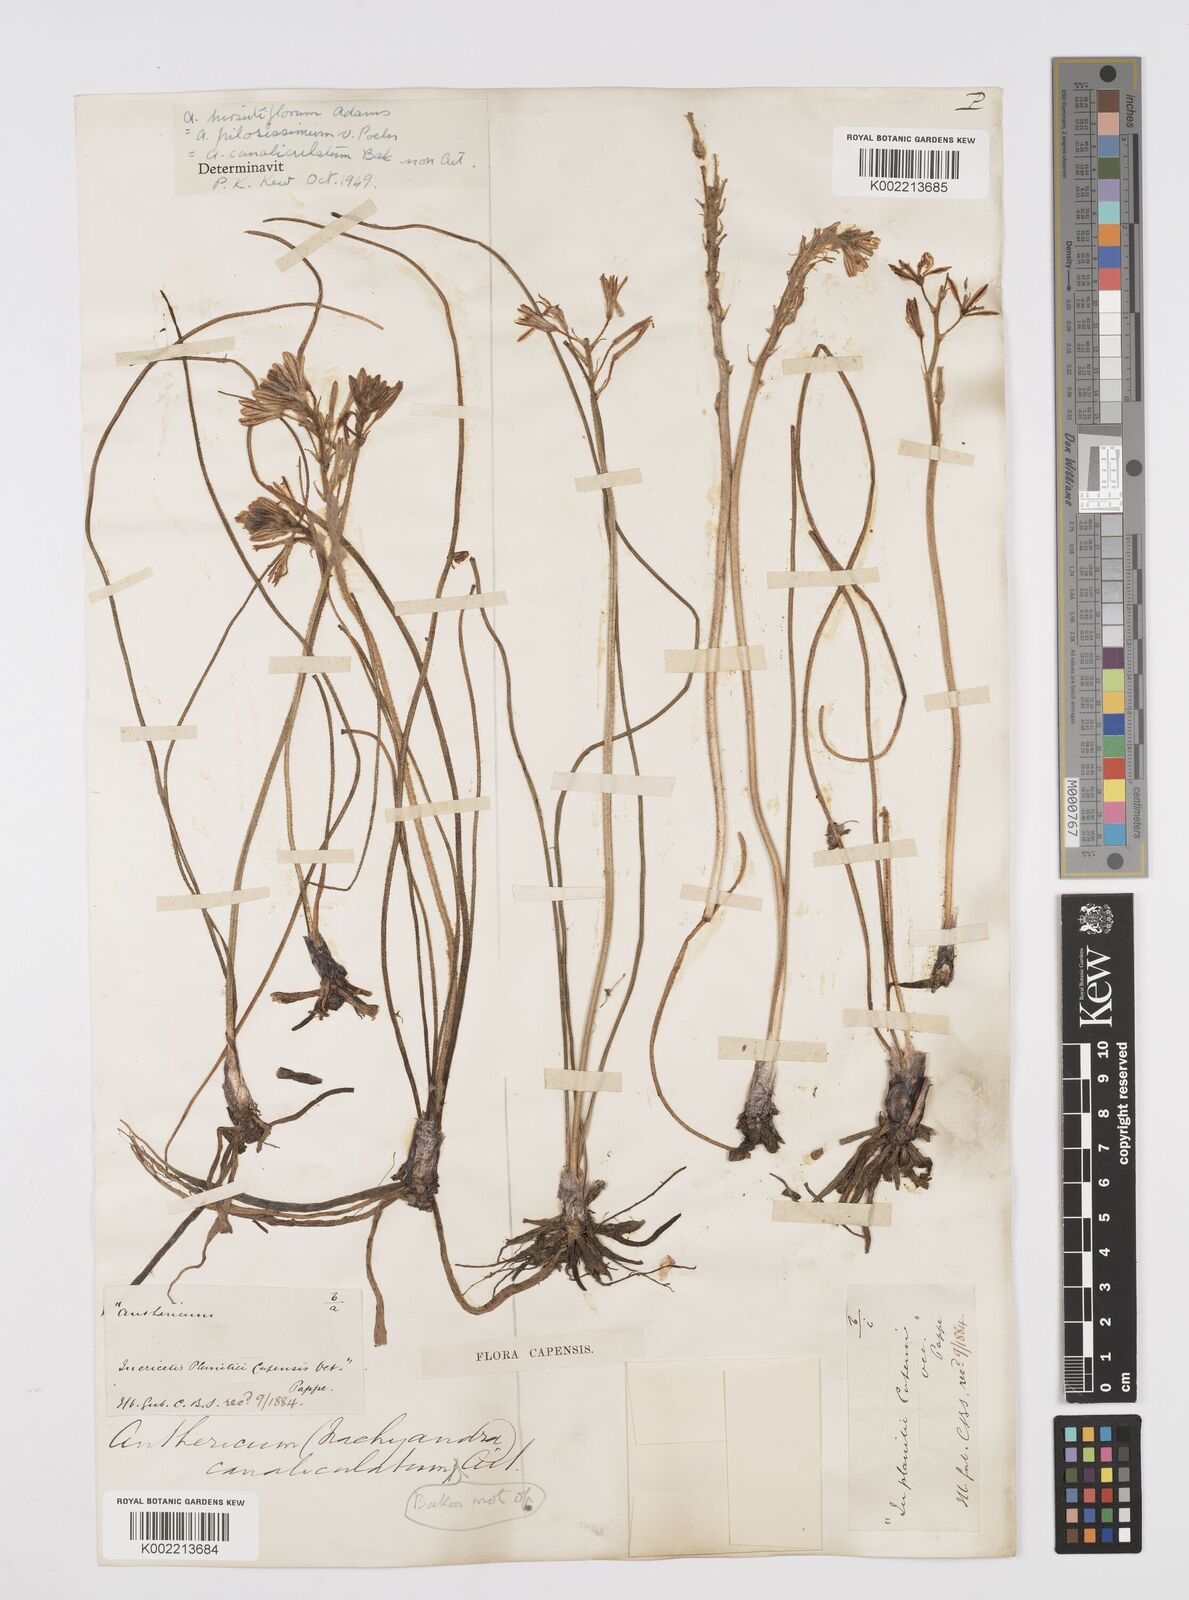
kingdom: Plantae
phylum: Tracheophyta
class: Liliopsida
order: Asparagales
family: Asphodelaceae
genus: Trachyandra
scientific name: Trachyandra hirsutiflora
